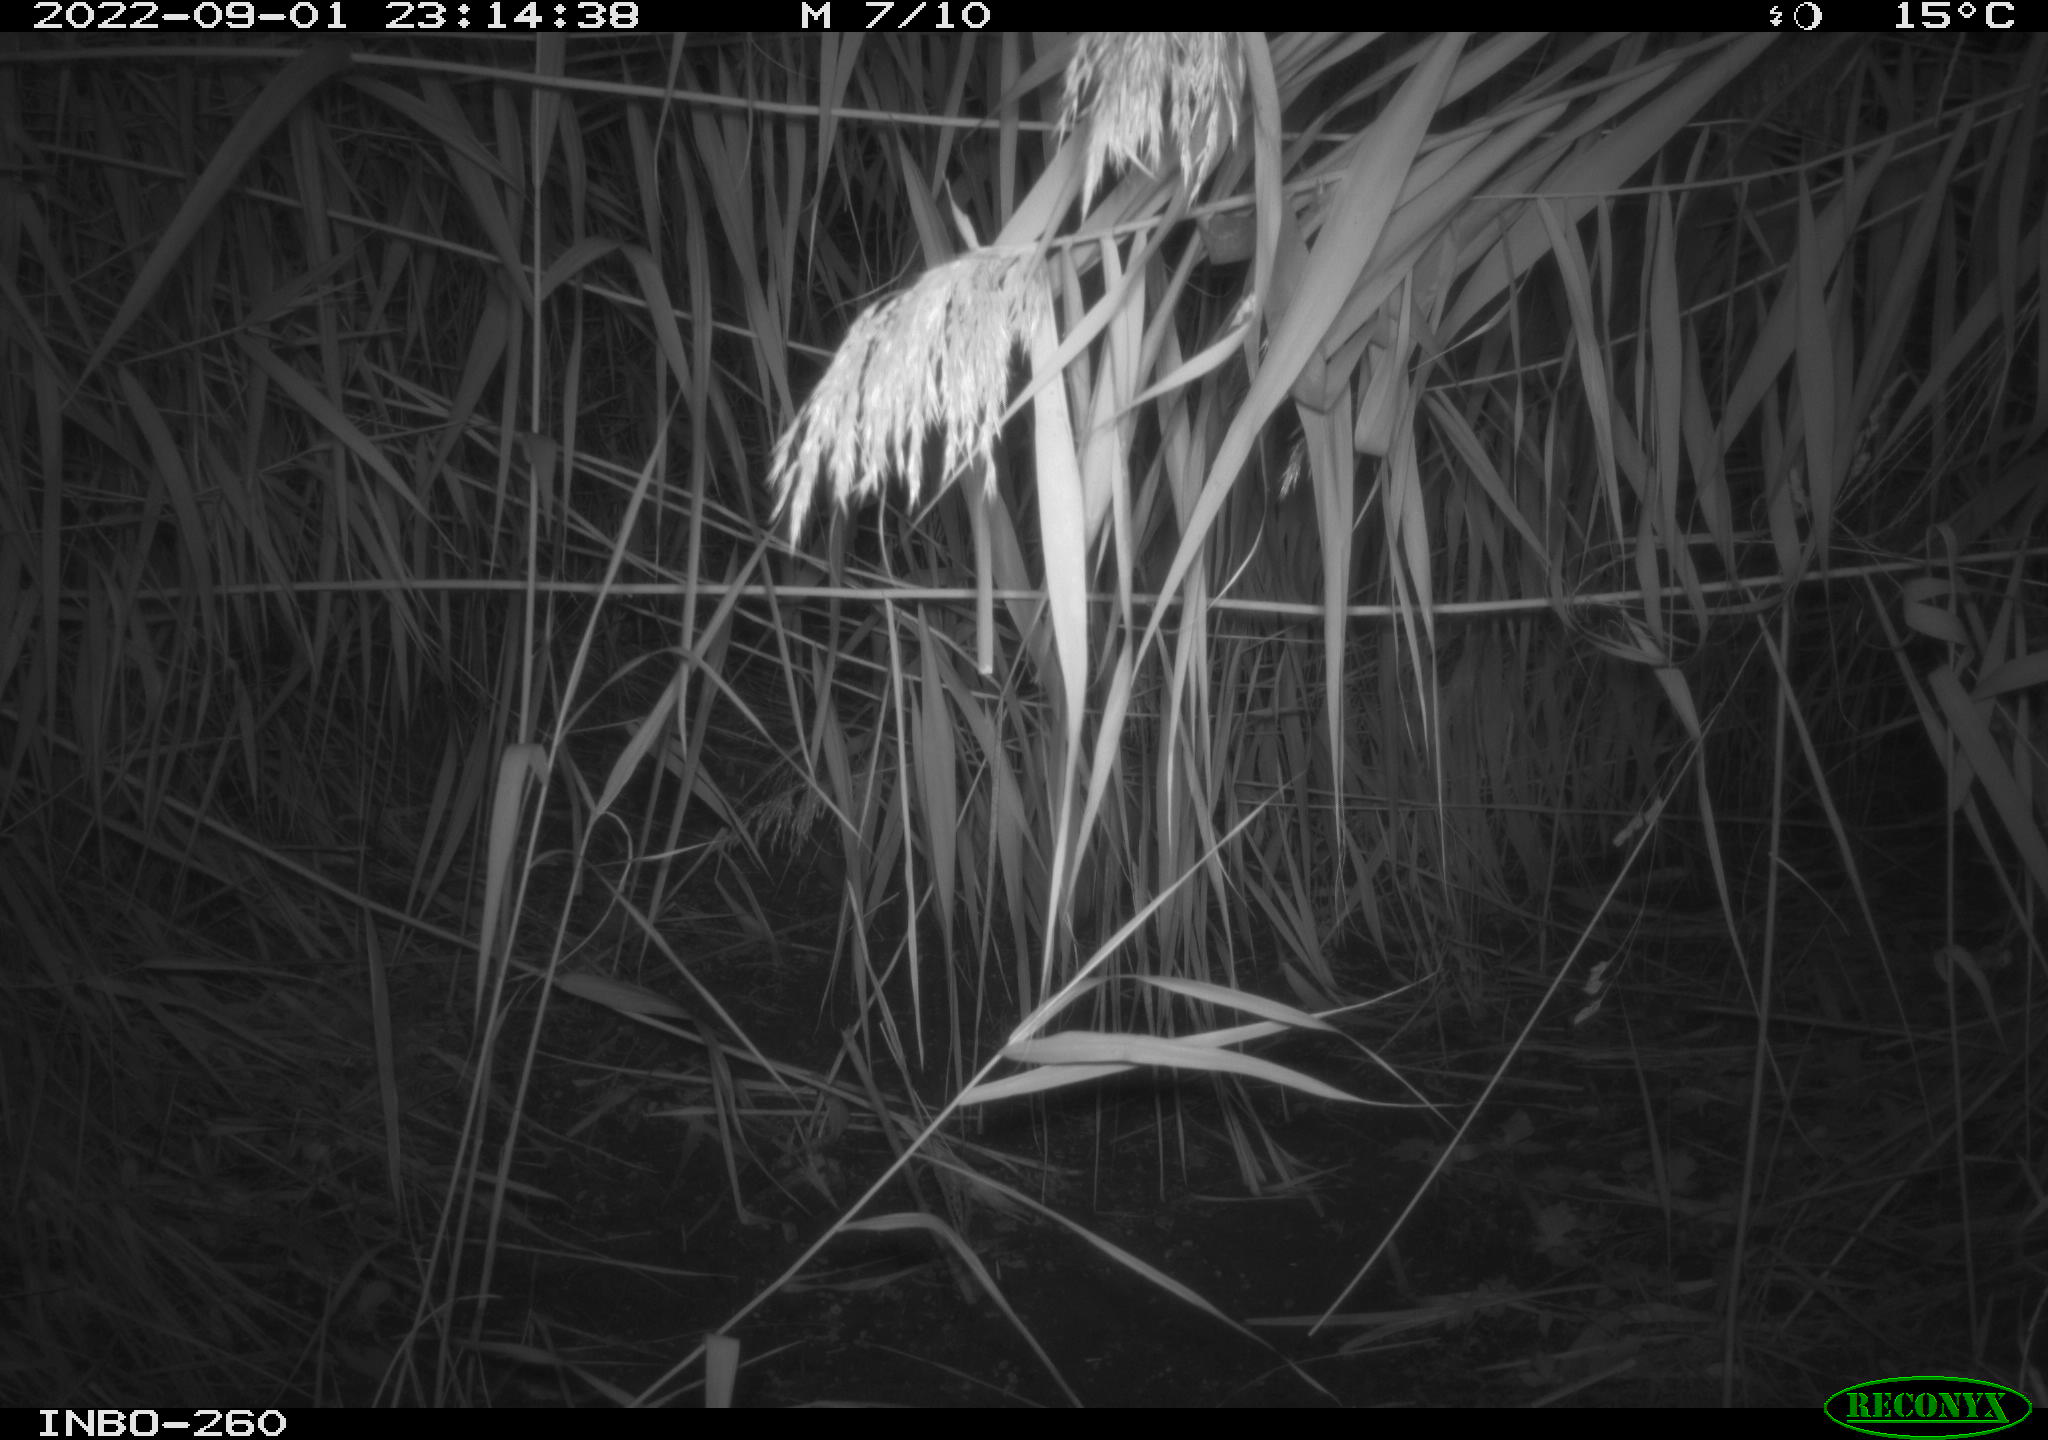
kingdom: Animalia
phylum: Chordata
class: Mammalia
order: Rodentia
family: Cricetidae
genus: Ondatra
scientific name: Ondatra zibethicus
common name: Muskrat
